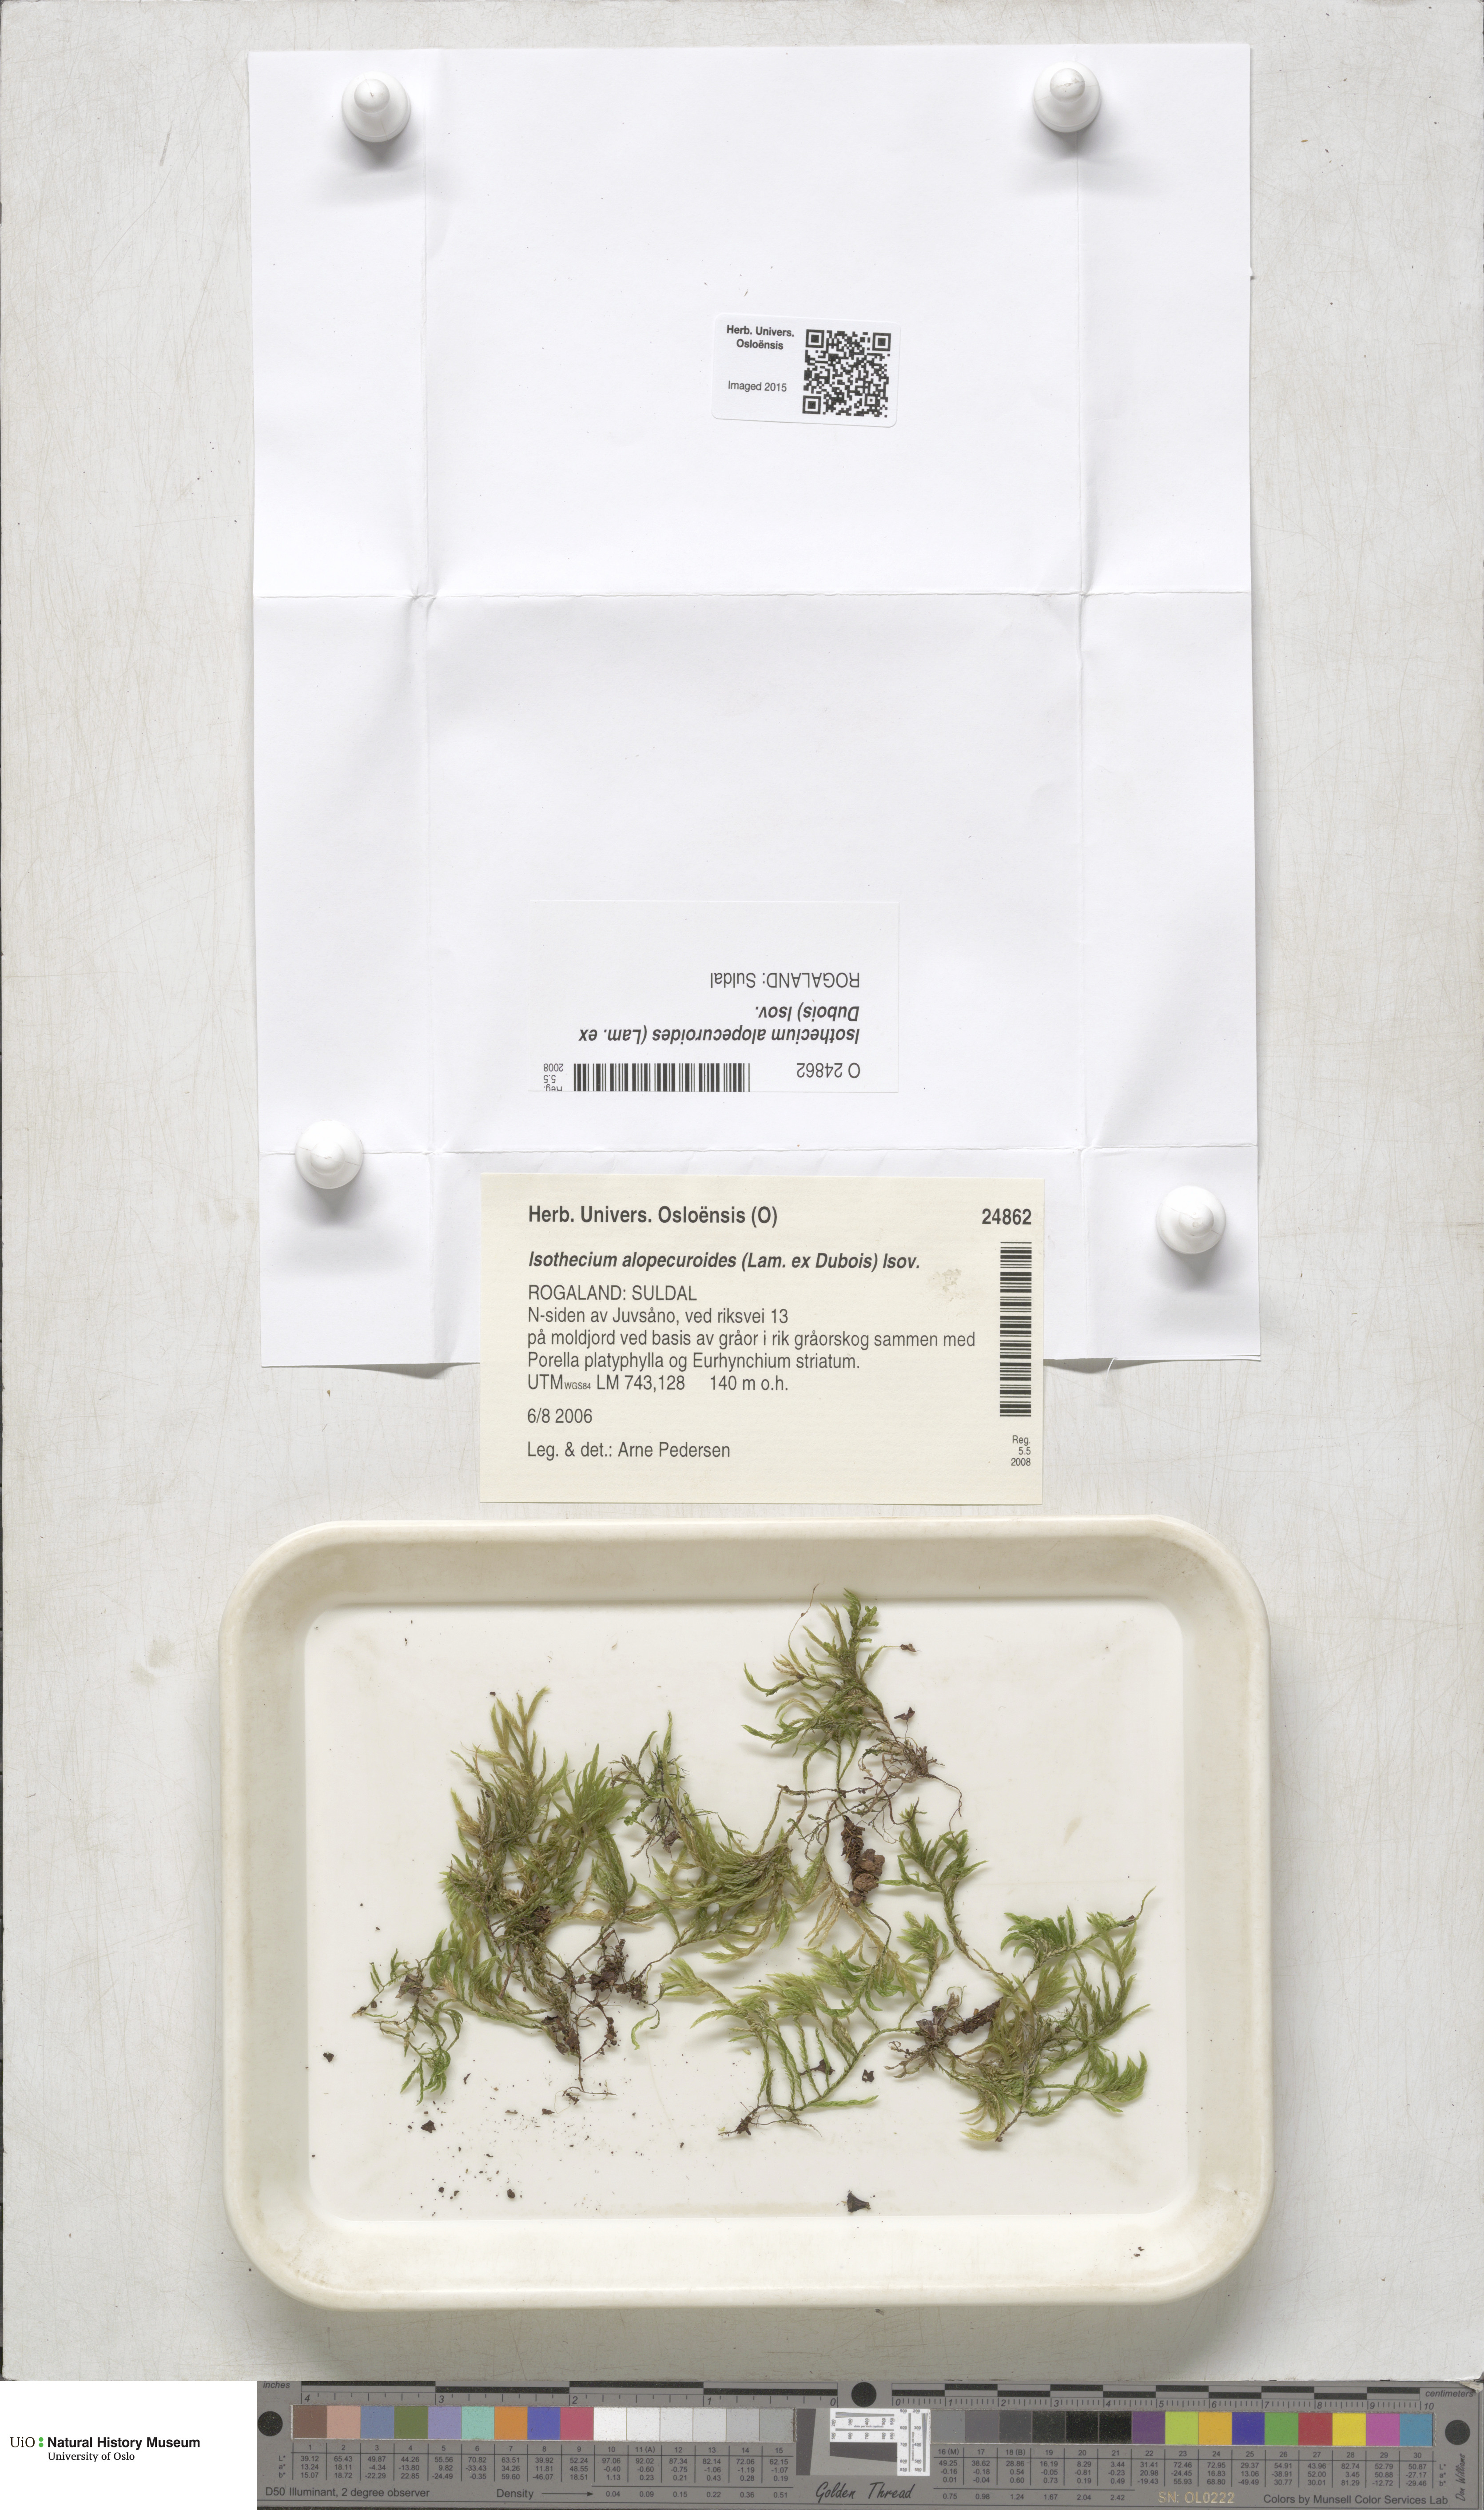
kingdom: Plantae
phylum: Bryophyta
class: Bryopsida
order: Hypnales
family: Lembophyllaceae
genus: Isothecium
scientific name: Isothecium alopecuroides
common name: Larger mouse-tail moss
